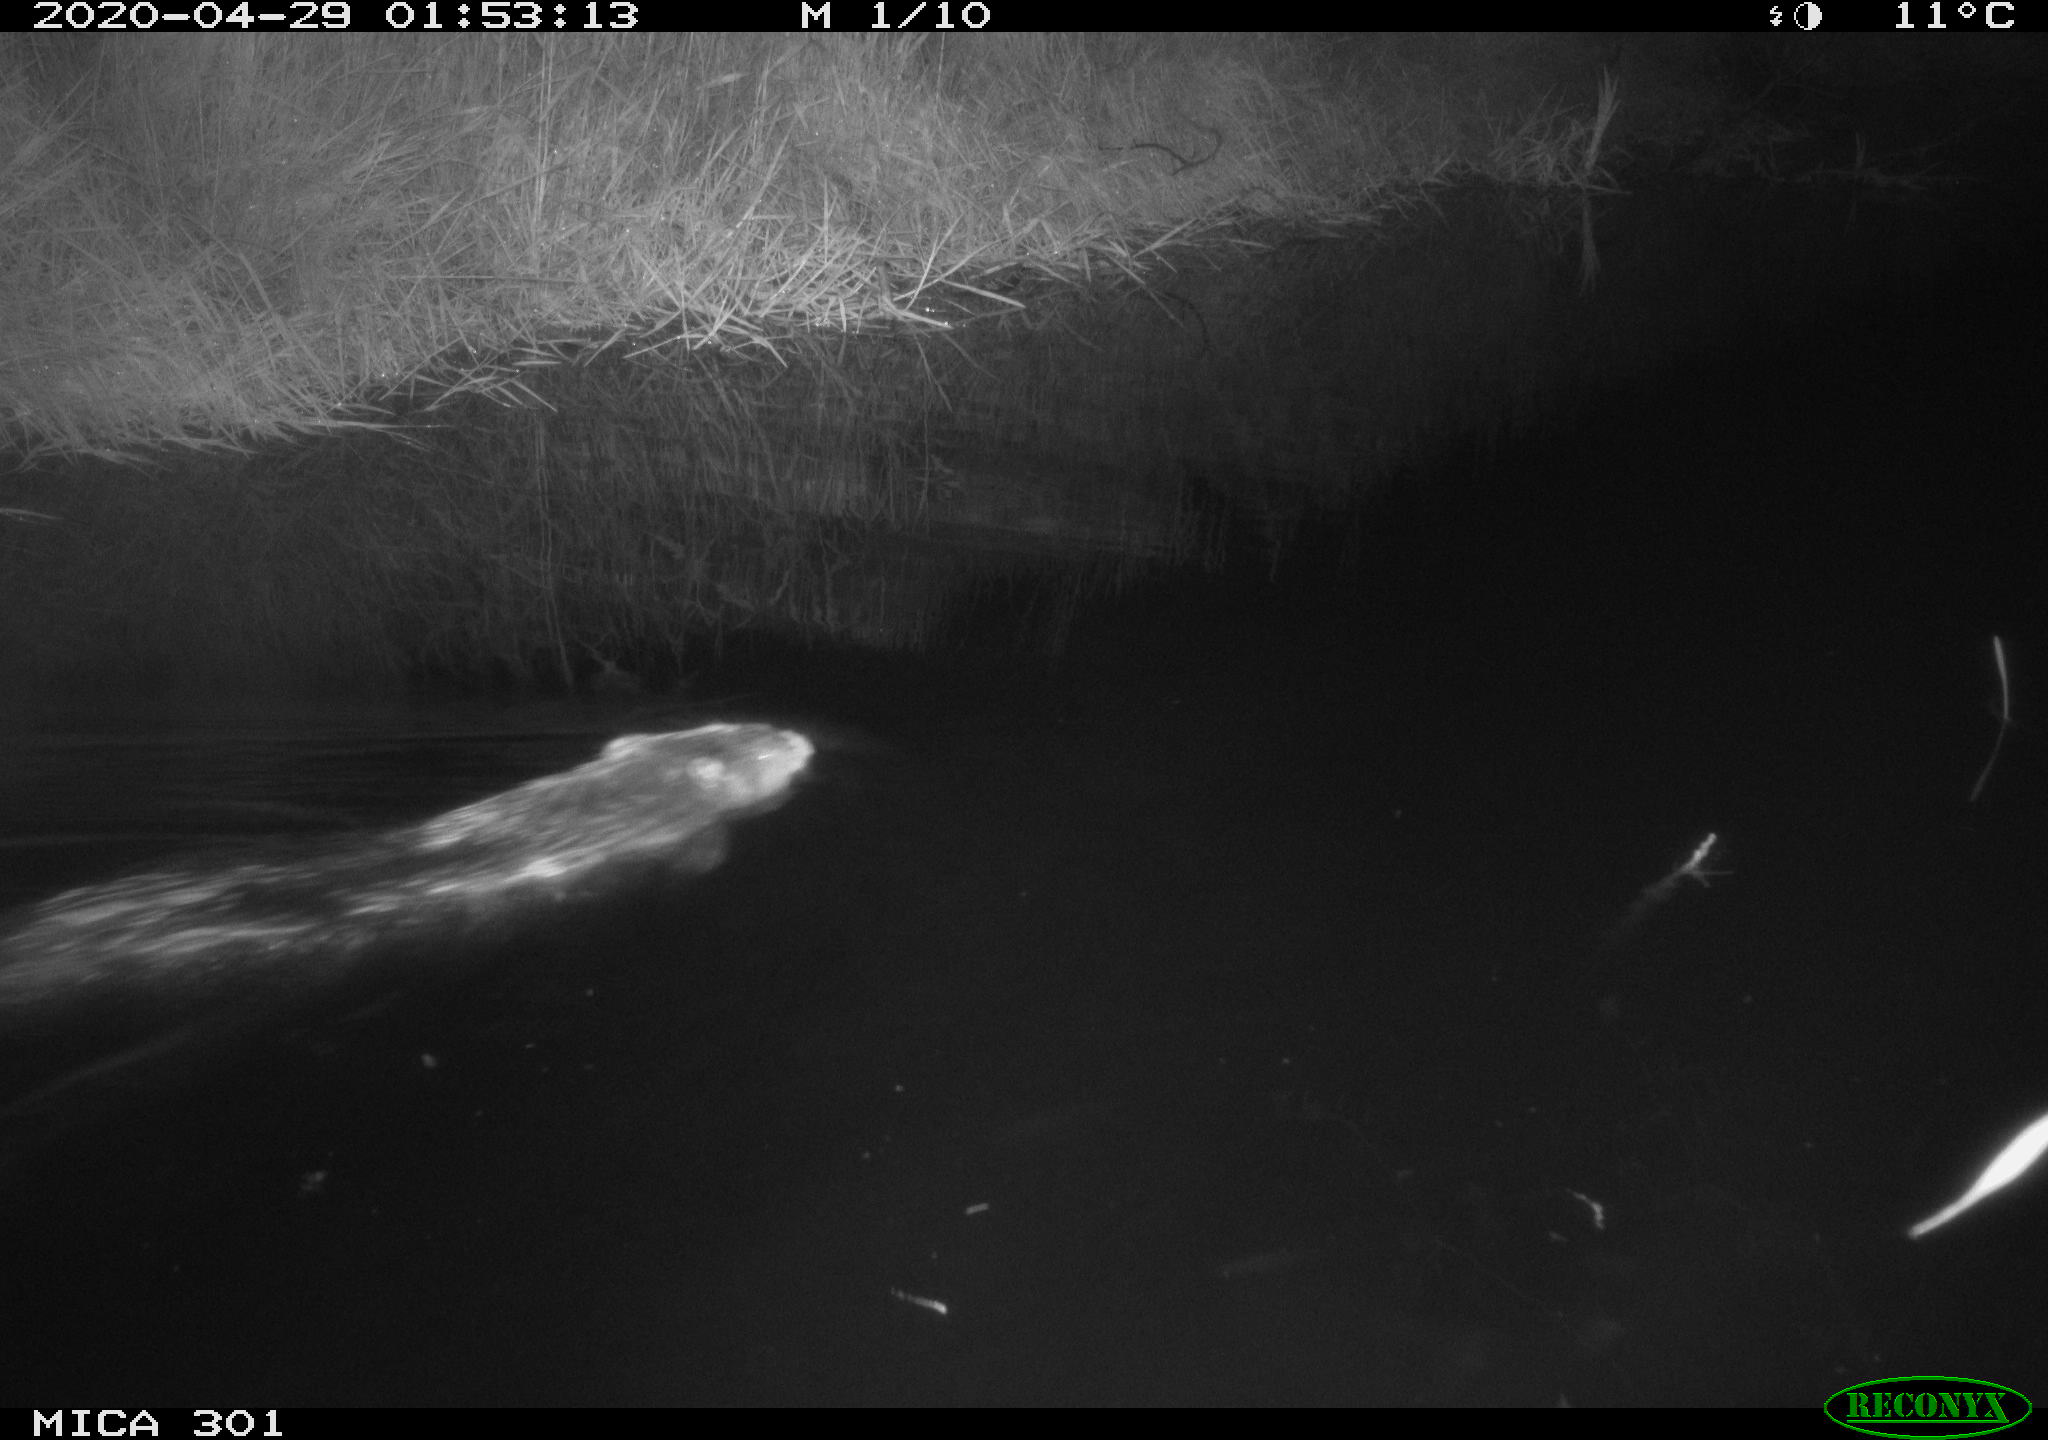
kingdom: Animalia
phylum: Chordata
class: Mammalia
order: Rodentia
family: Castoridae
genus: Castor
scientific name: Castor fiber
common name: Eurasian beaver
